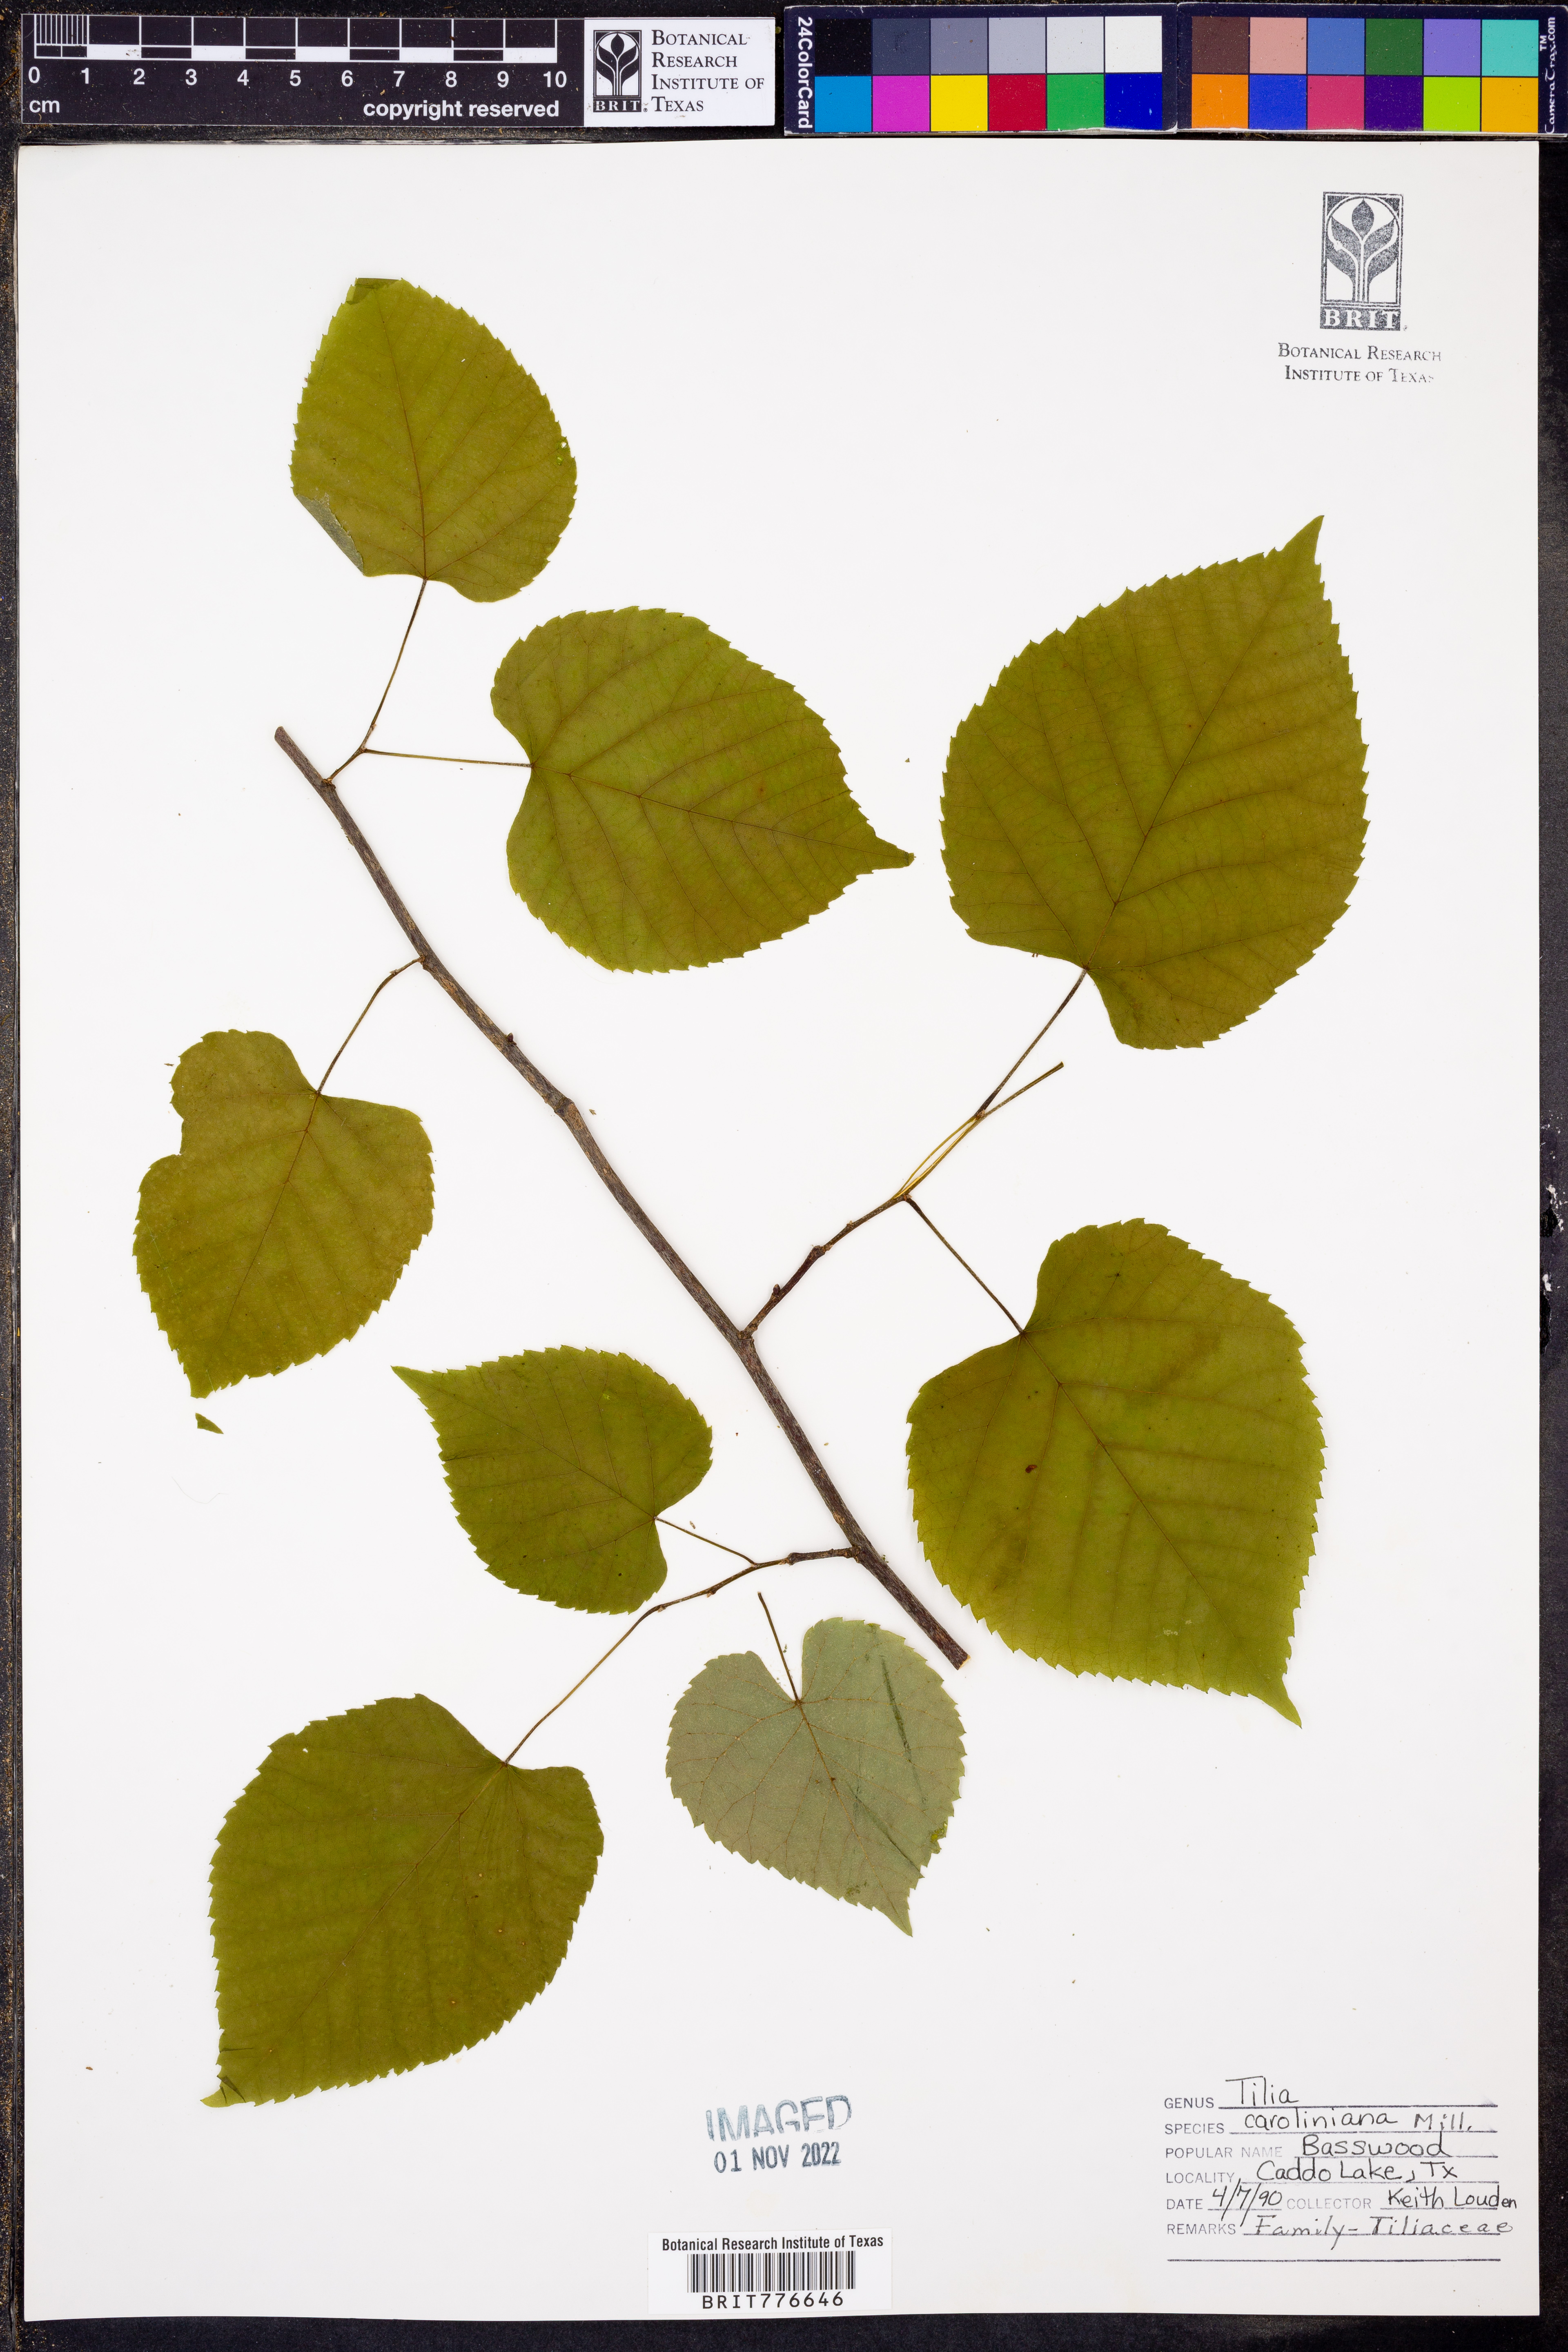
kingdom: Plantae
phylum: Tracheophyta
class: Magnoliopsida
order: Malvales
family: Malvaceae
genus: Tilia
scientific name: Tilia americana
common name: Basswood
